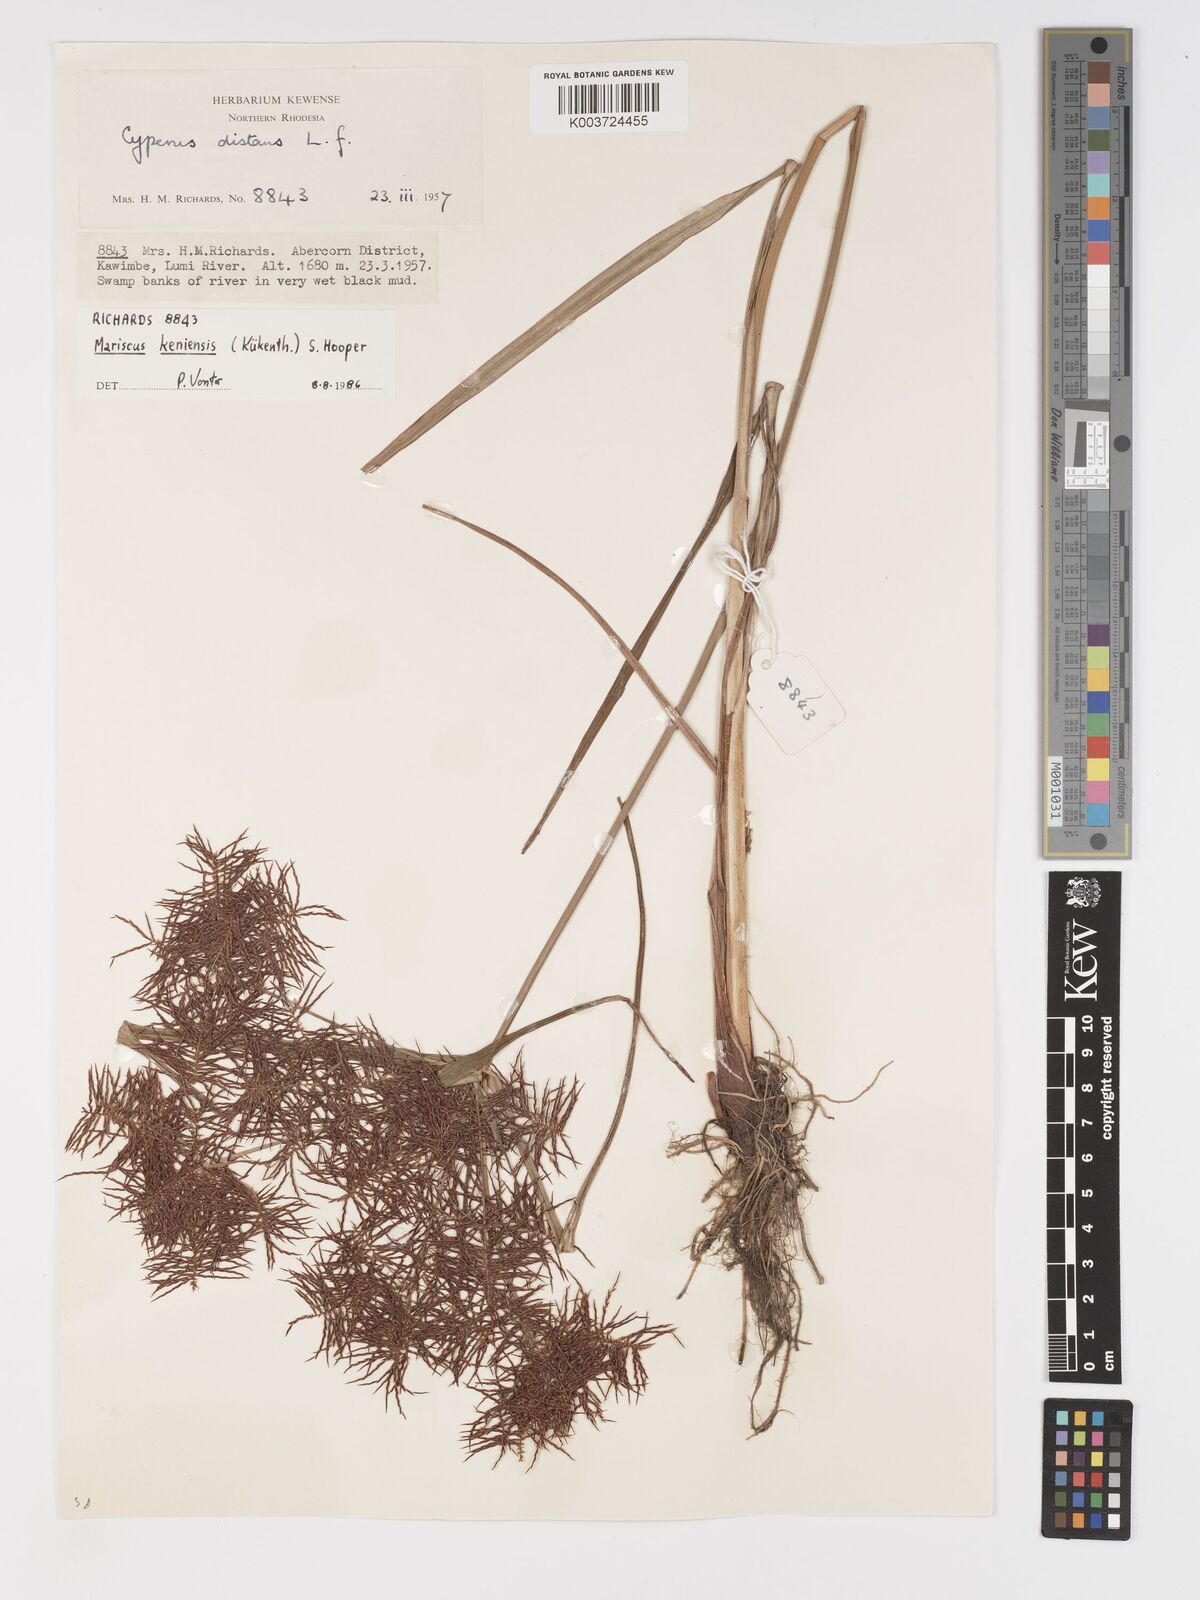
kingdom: Plantae
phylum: Tracheophyta
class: Liliopsida
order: Poales
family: Cyperaceae
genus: Cyperus
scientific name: Cyperus
